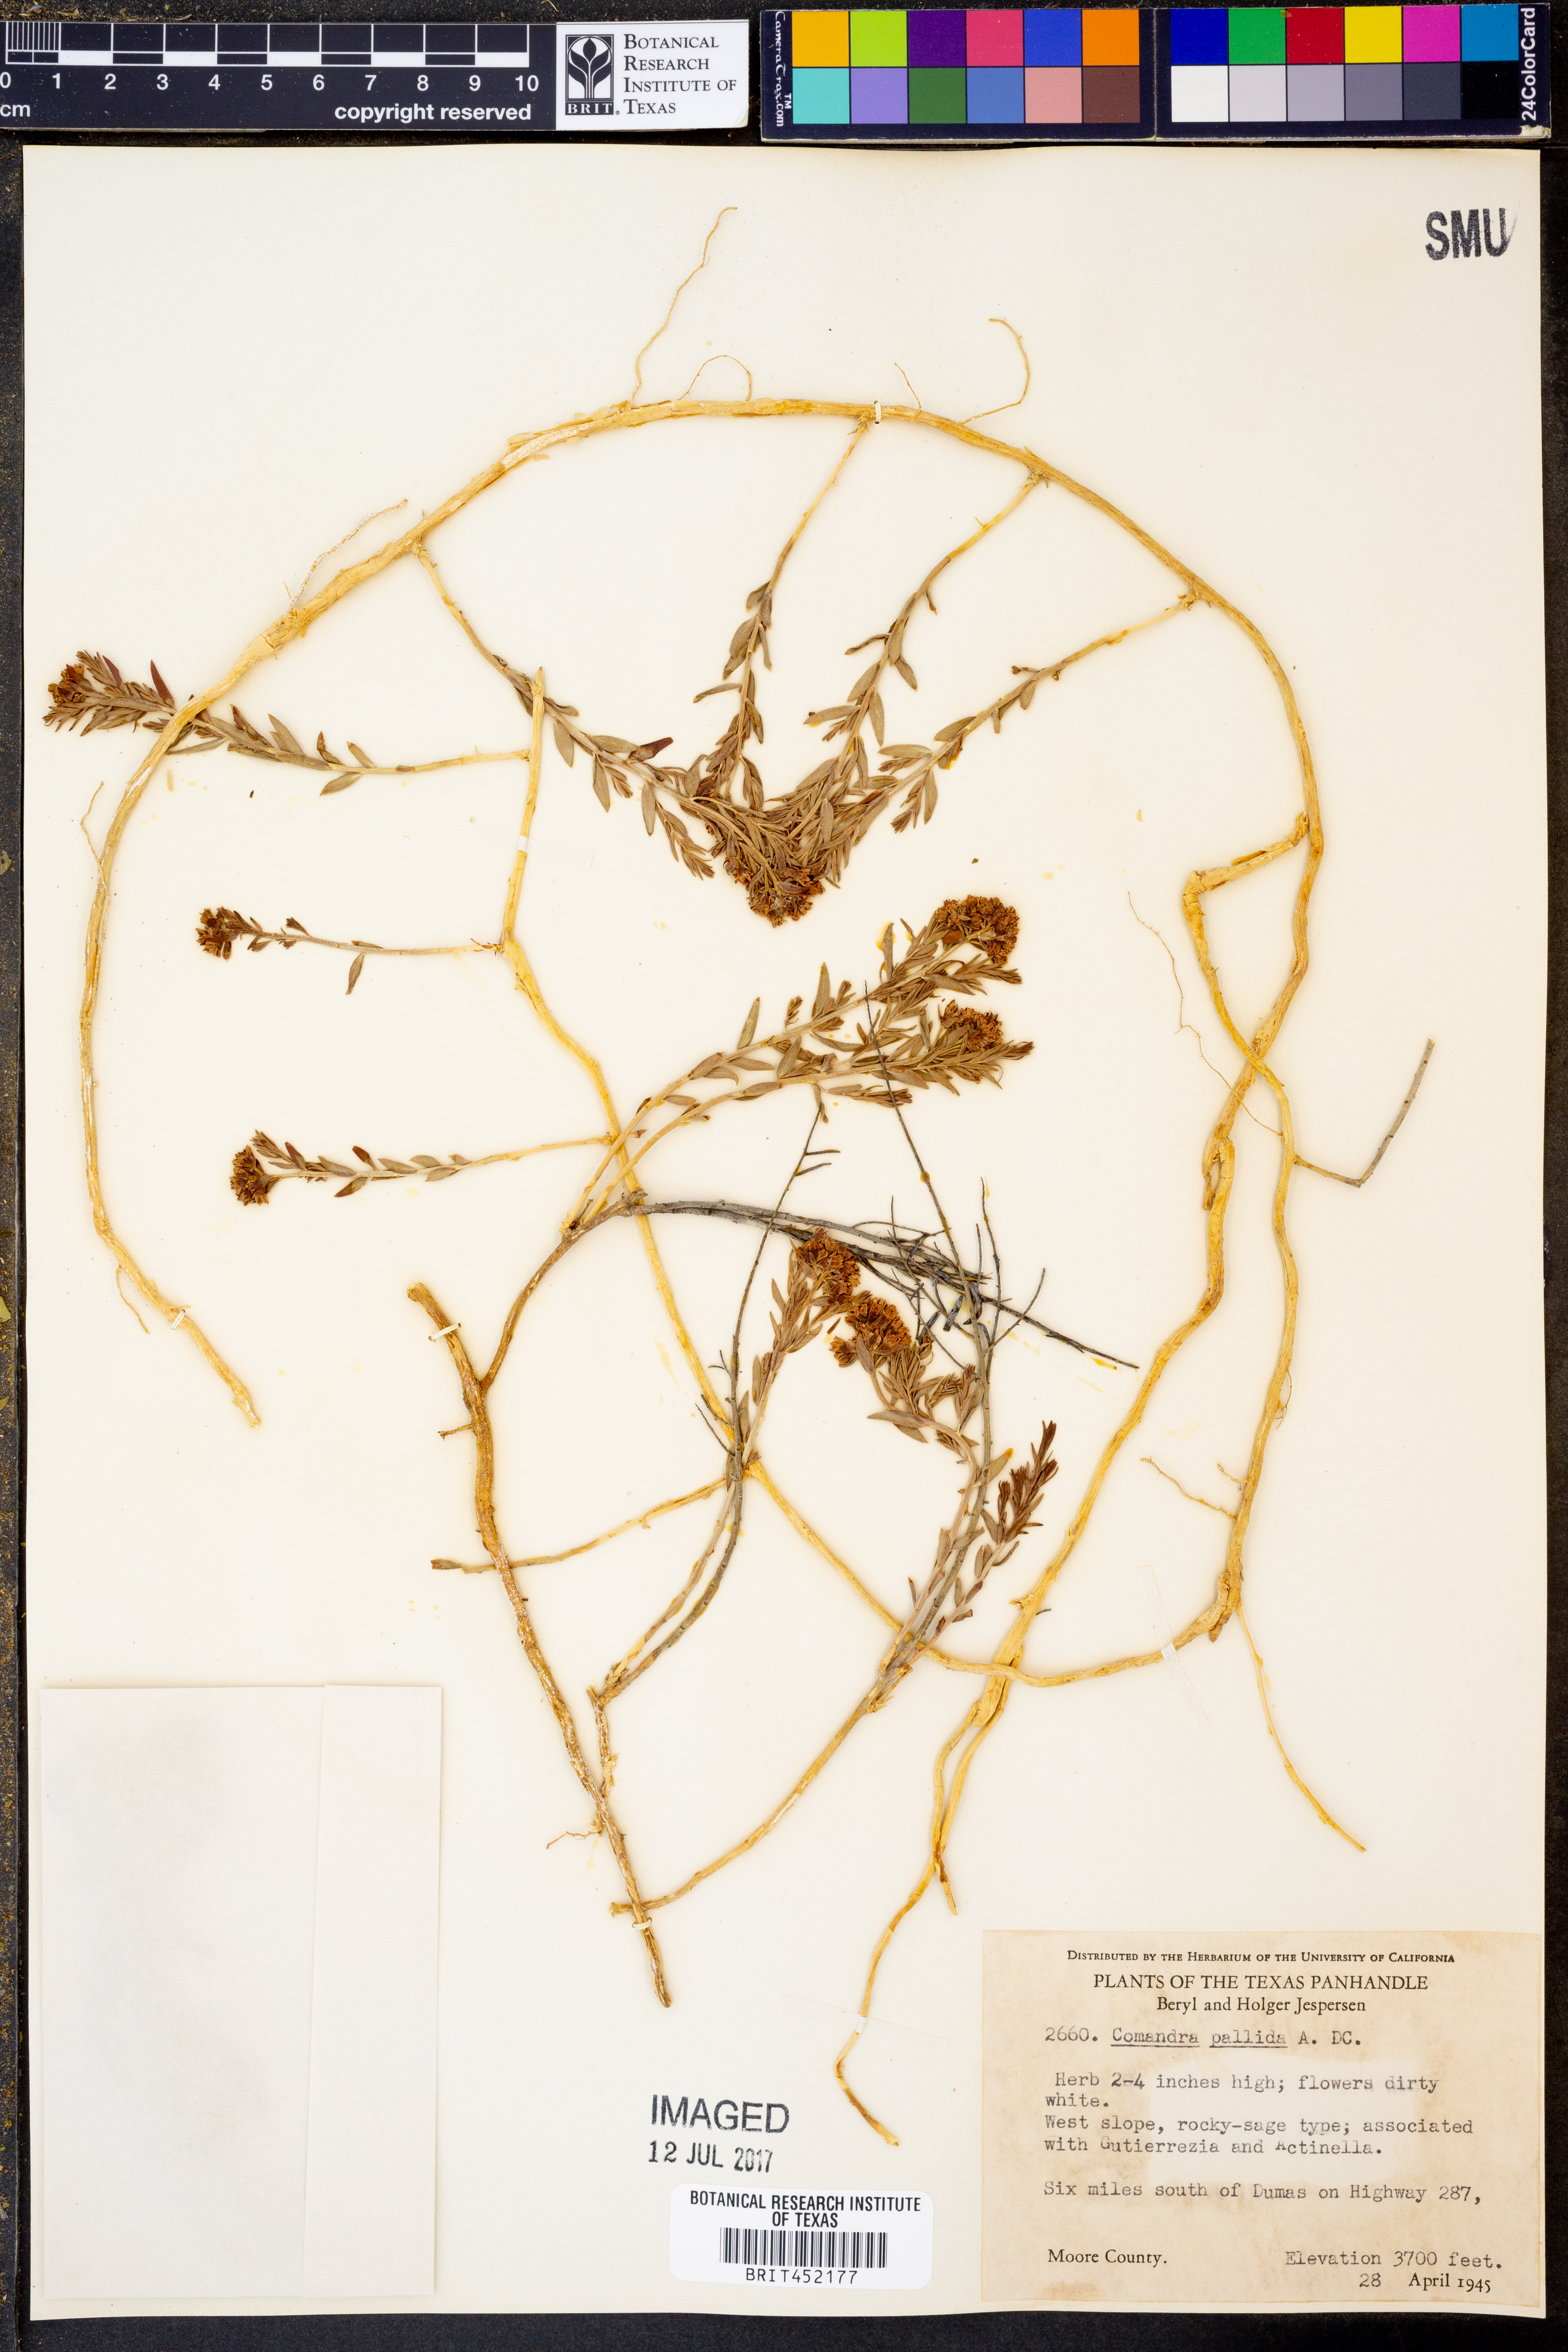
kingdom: Plantae
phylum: Tracheophyta
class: Magnoliopsida
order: Santalales
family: Comandraceae
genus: Comandra
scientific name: Comandra umbellata
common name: Bastard toadflax
